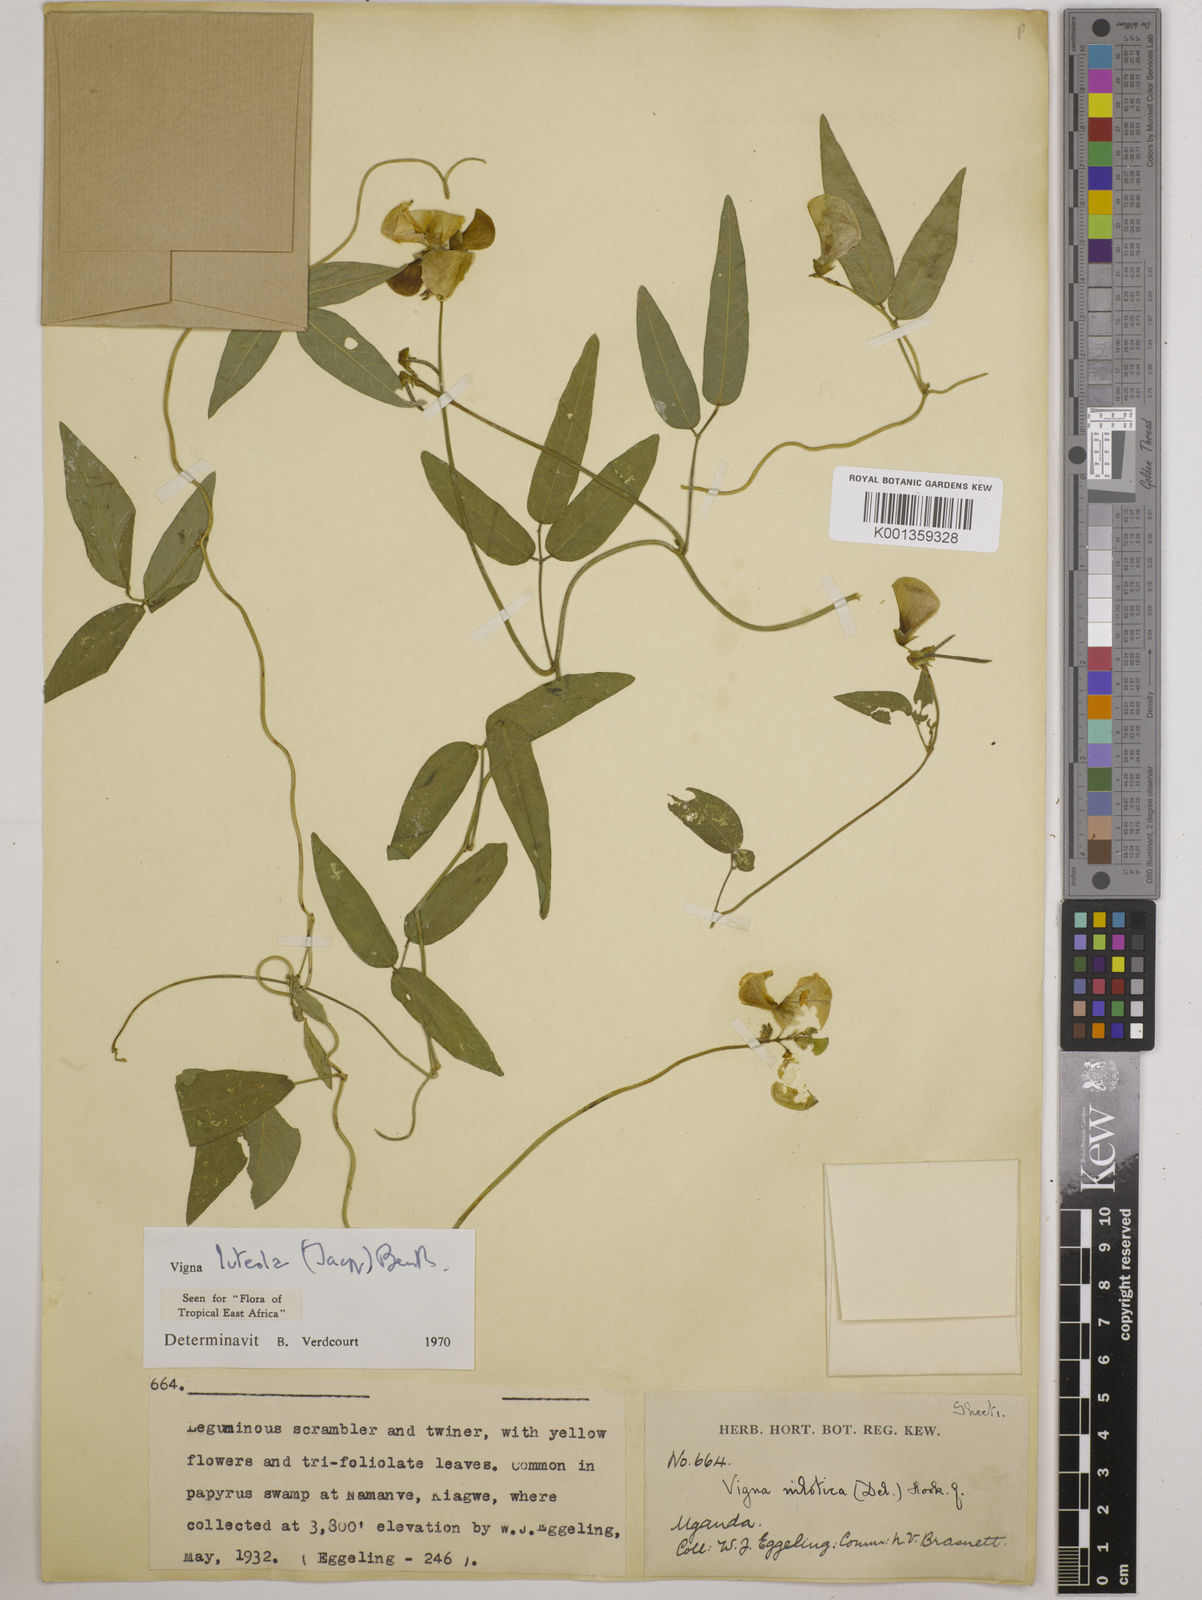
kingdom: Plantae
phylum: Tracheophyta
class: Magnoliopsida
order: Fabales
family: Fabaceae
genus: Vigna
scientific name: Vigna luteola
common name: Hairypod cowpea
